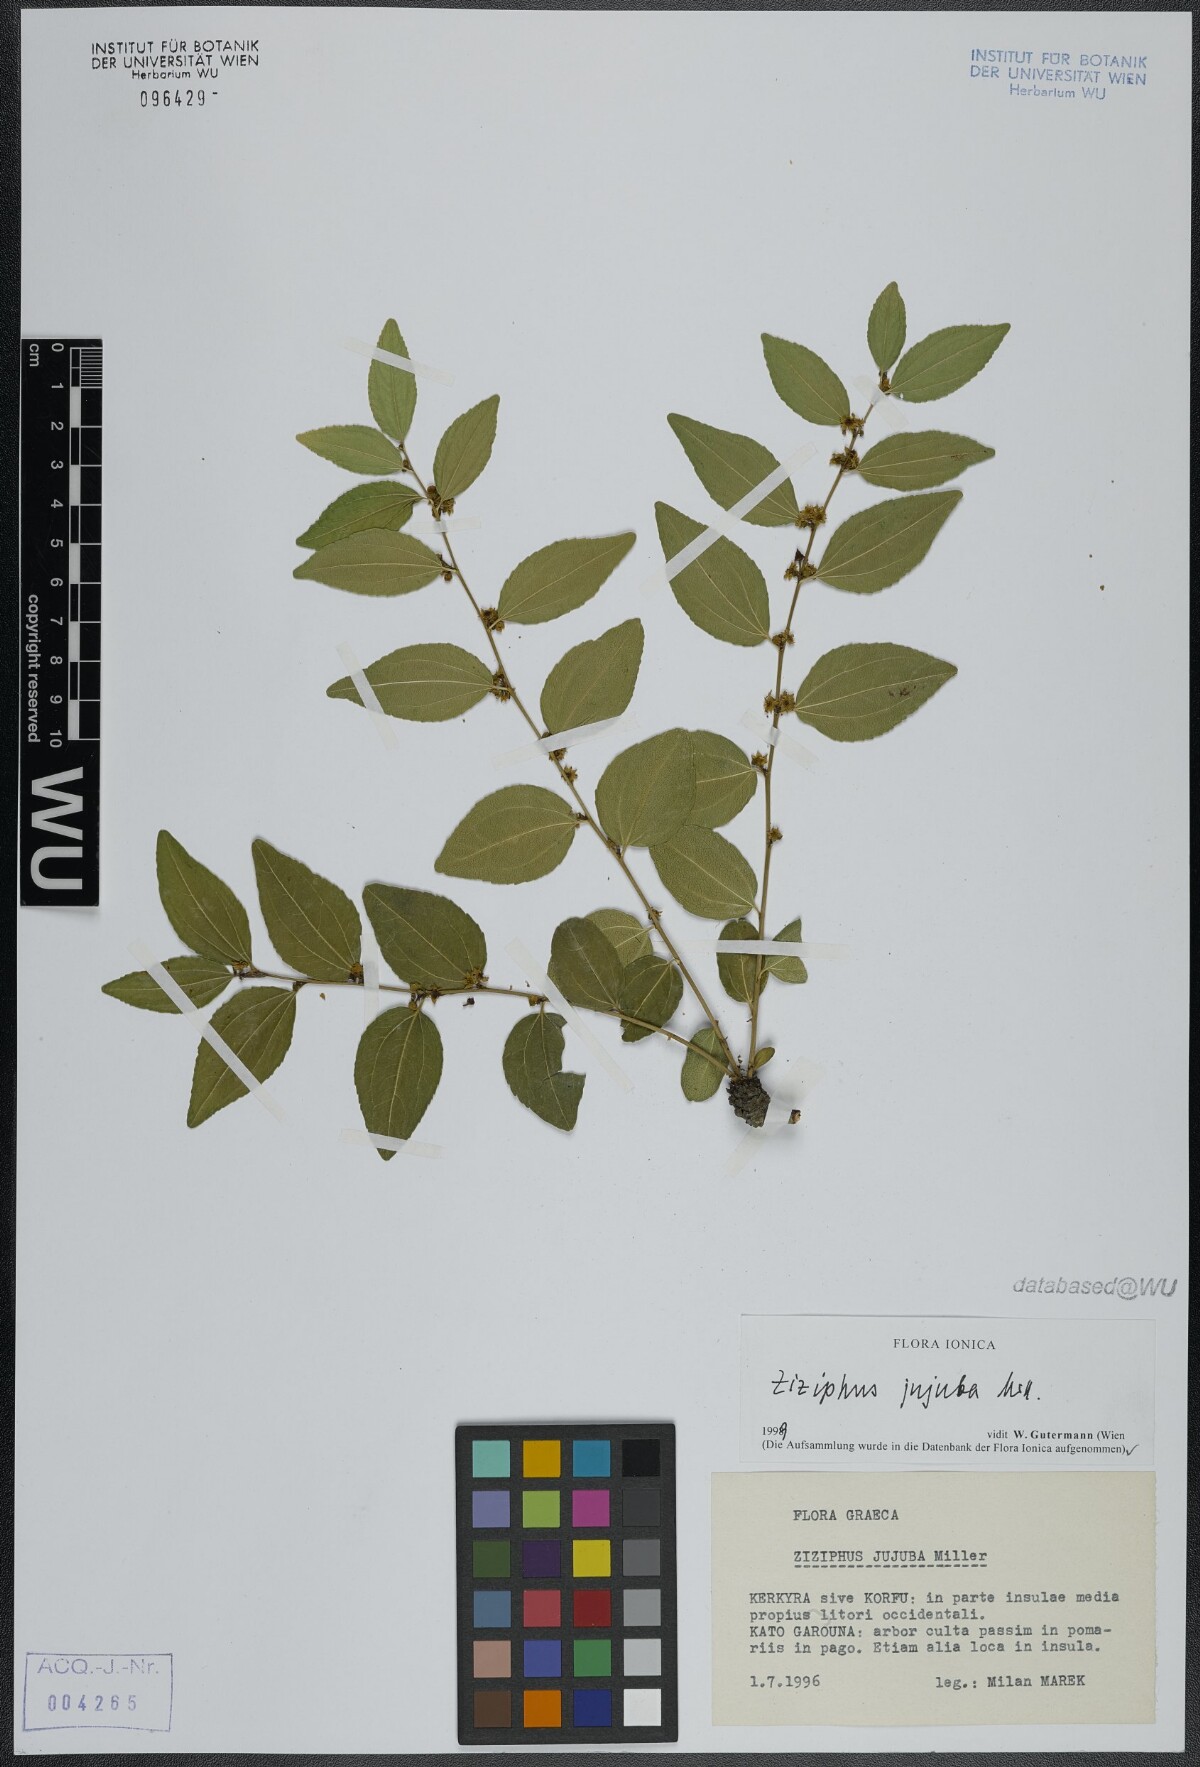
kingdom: Plantae
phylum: Tracheophyta
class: Magnoliopsida
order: Rosales
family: Rhamnaceae
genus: Ziziphus
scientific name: Ziziphus jujuba
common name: Jujube red date
